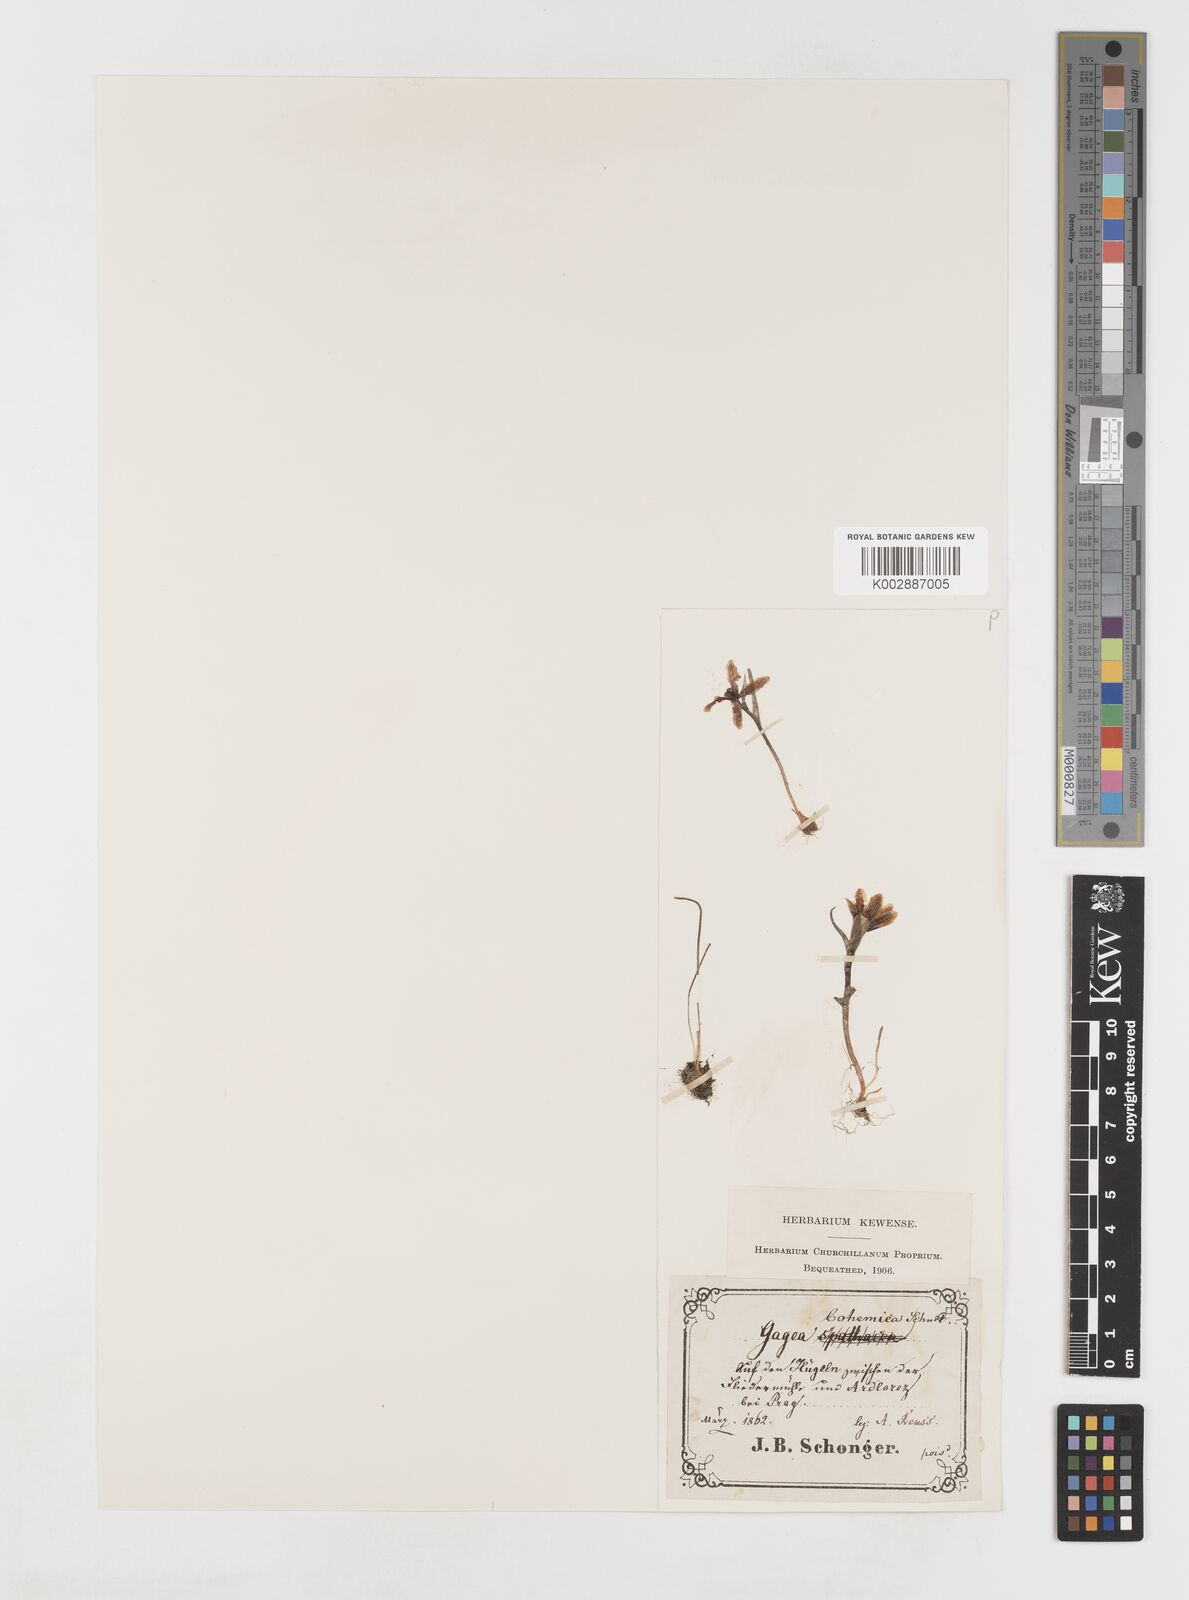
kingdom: Plantae
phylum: Tracheophyta
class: Liliopsida
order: Liliales
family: Liliaceae
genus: Gagea
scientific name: Gagea bohemica
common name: Early star-of-bethlehem
